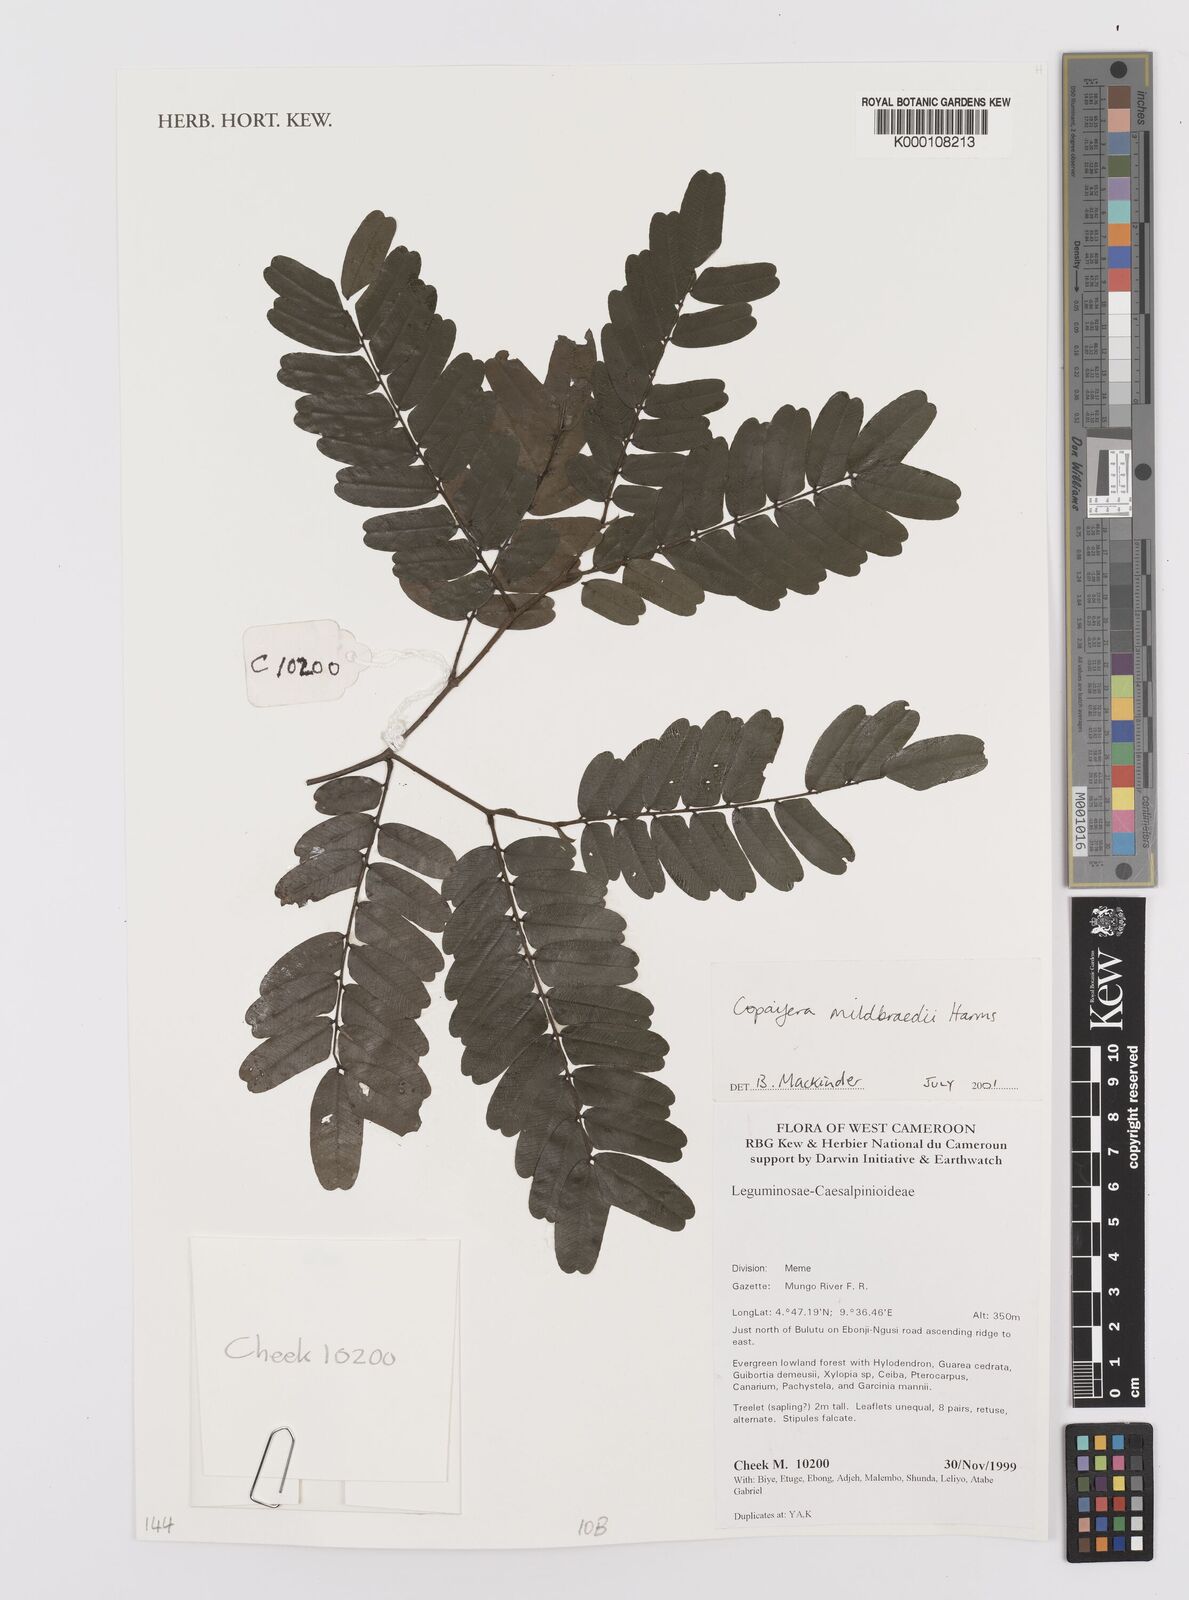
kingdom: Plantae
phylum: Tracheophyta
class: Magnoliopsida
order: Fabales
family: Fabaceae
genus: Copaifera
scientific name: Copaifera mildbraedii
